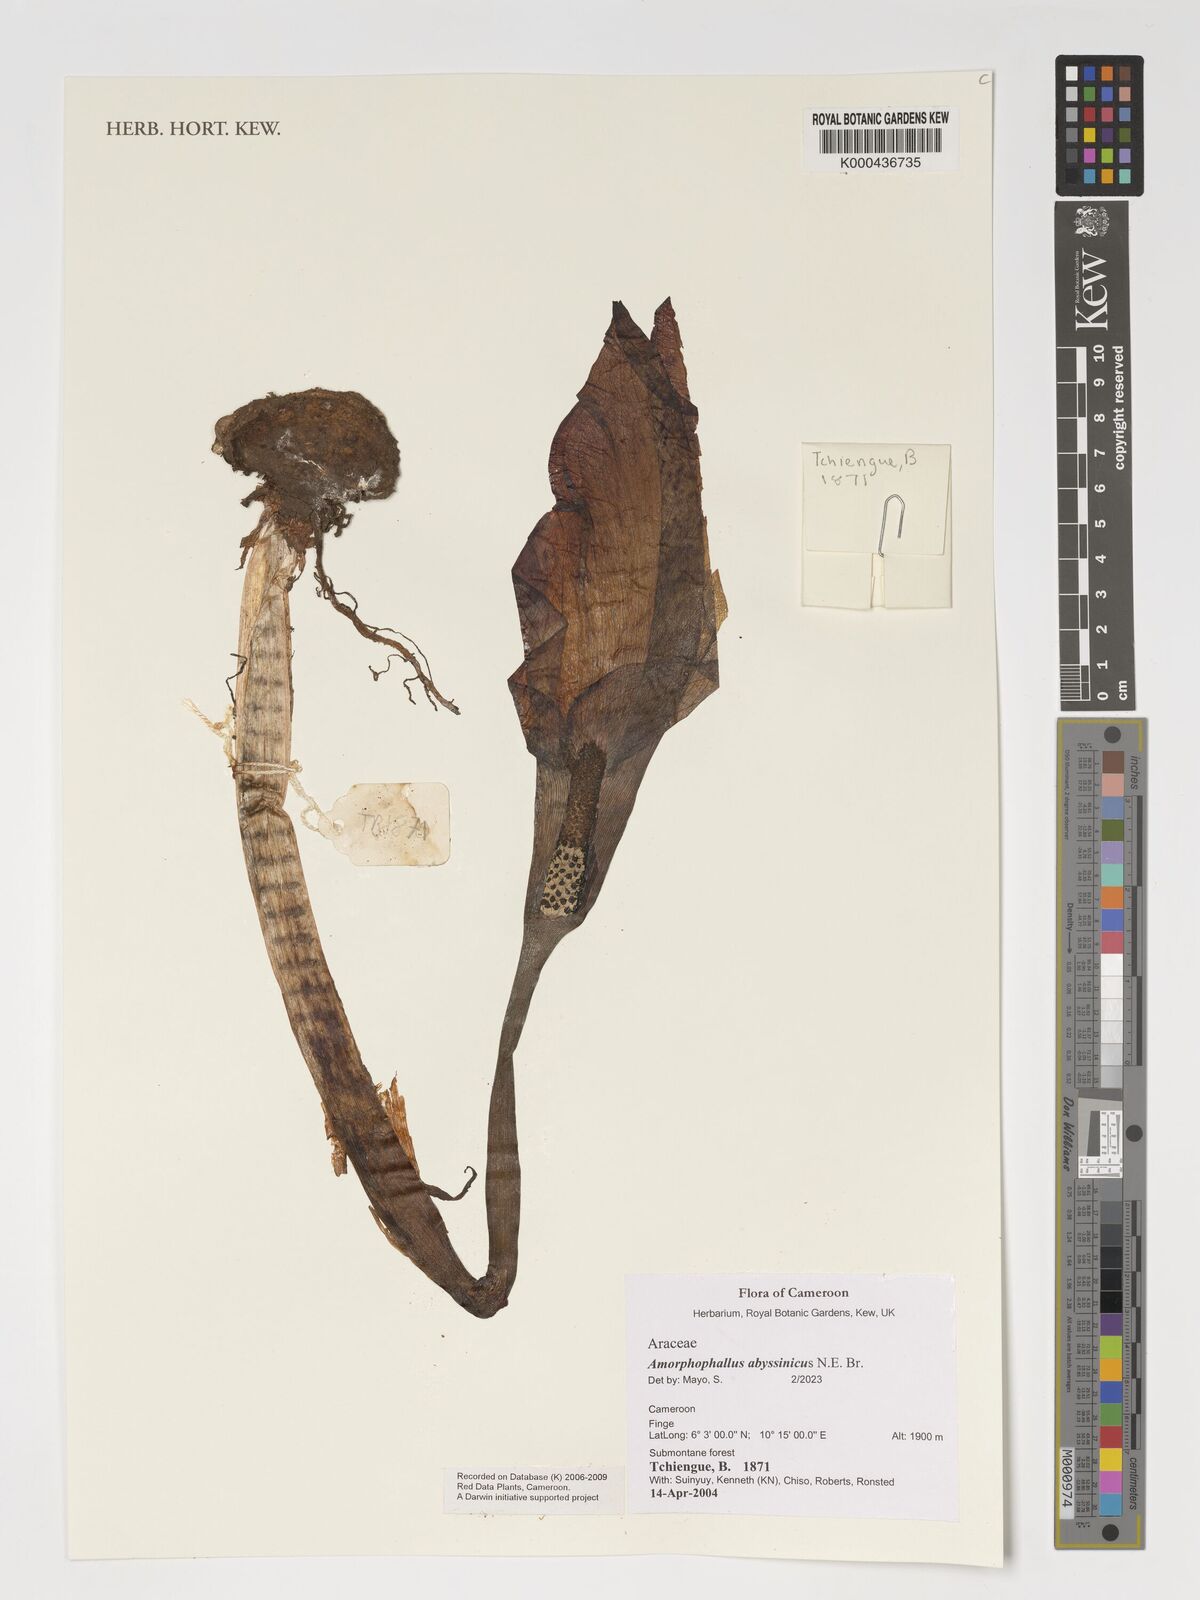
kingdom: Plantae
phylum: Tracheophyta
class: Liliopsida
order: Alismatales
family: Araceae
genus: Amorphophallus
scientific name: Amorphophallus abyssinicus
